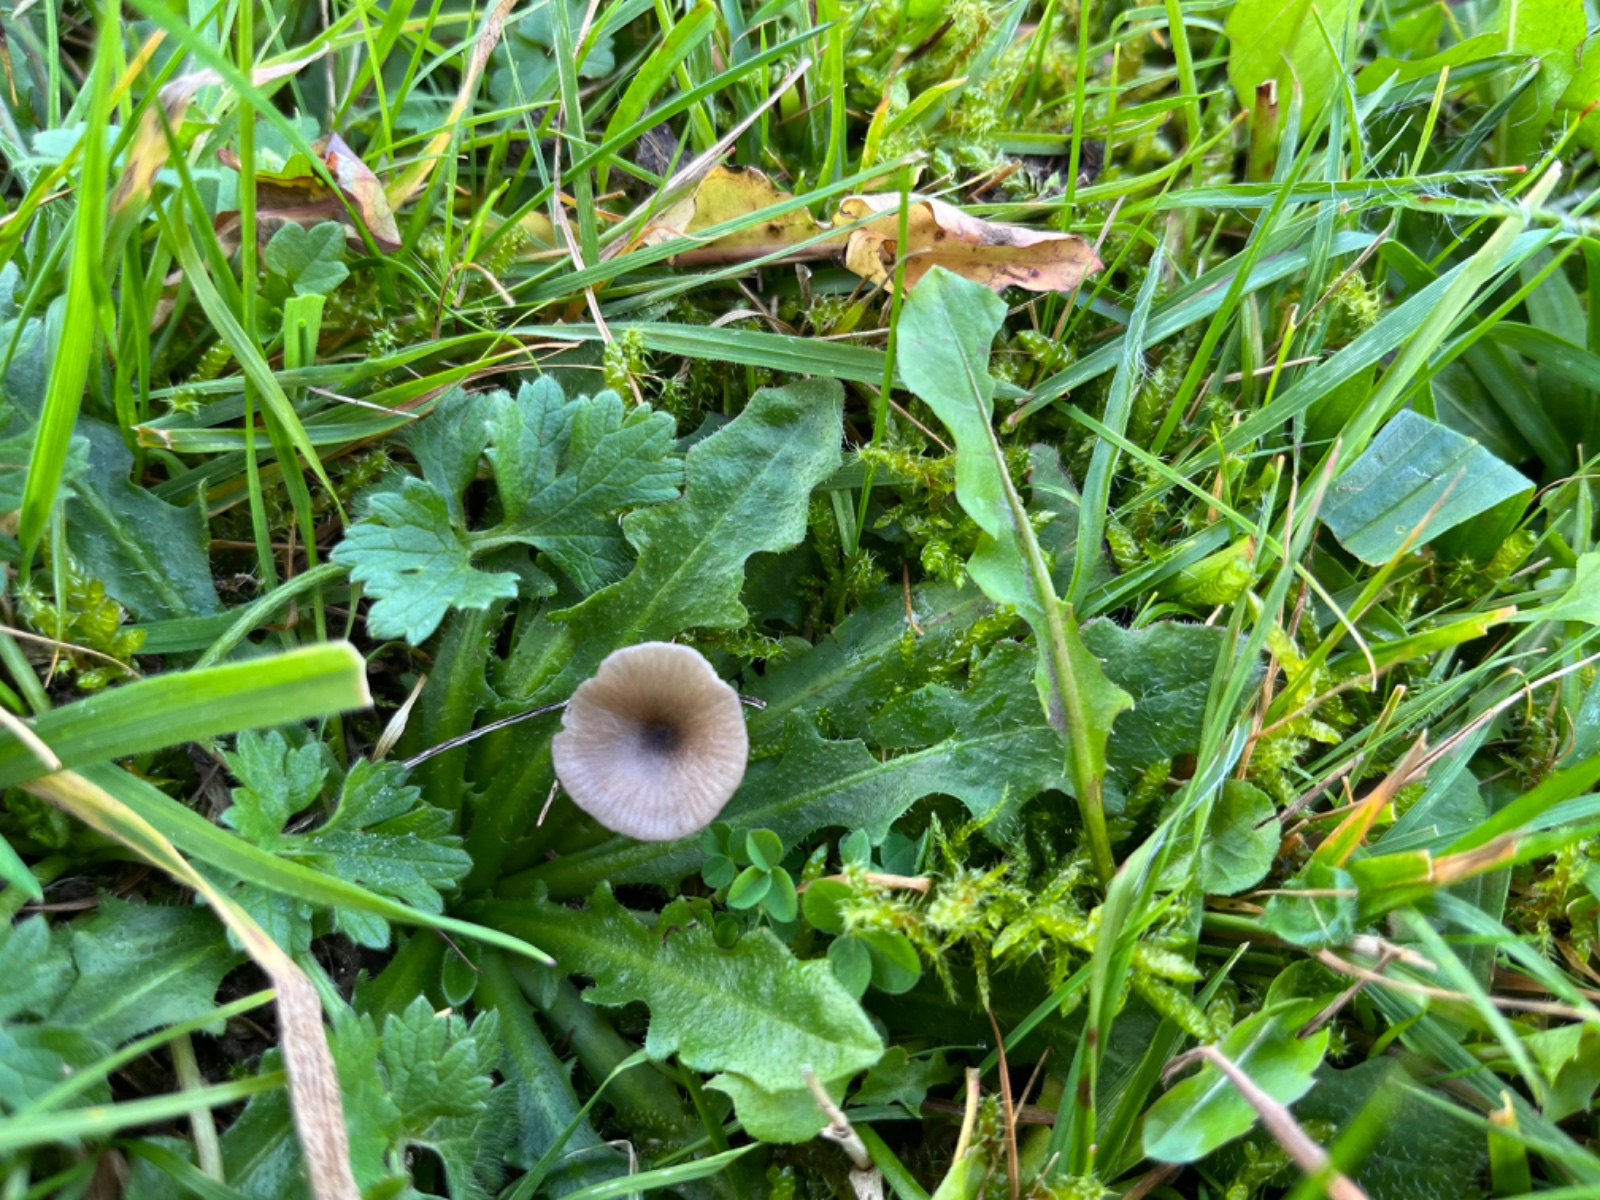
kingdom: Fungi
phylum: Basidiomycota
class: Agaricomycetes
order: Agaricales
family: Entolomataceae
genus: Entoloma
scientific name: Entoloma incarnatofuscescens
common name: tragt-rødblad
